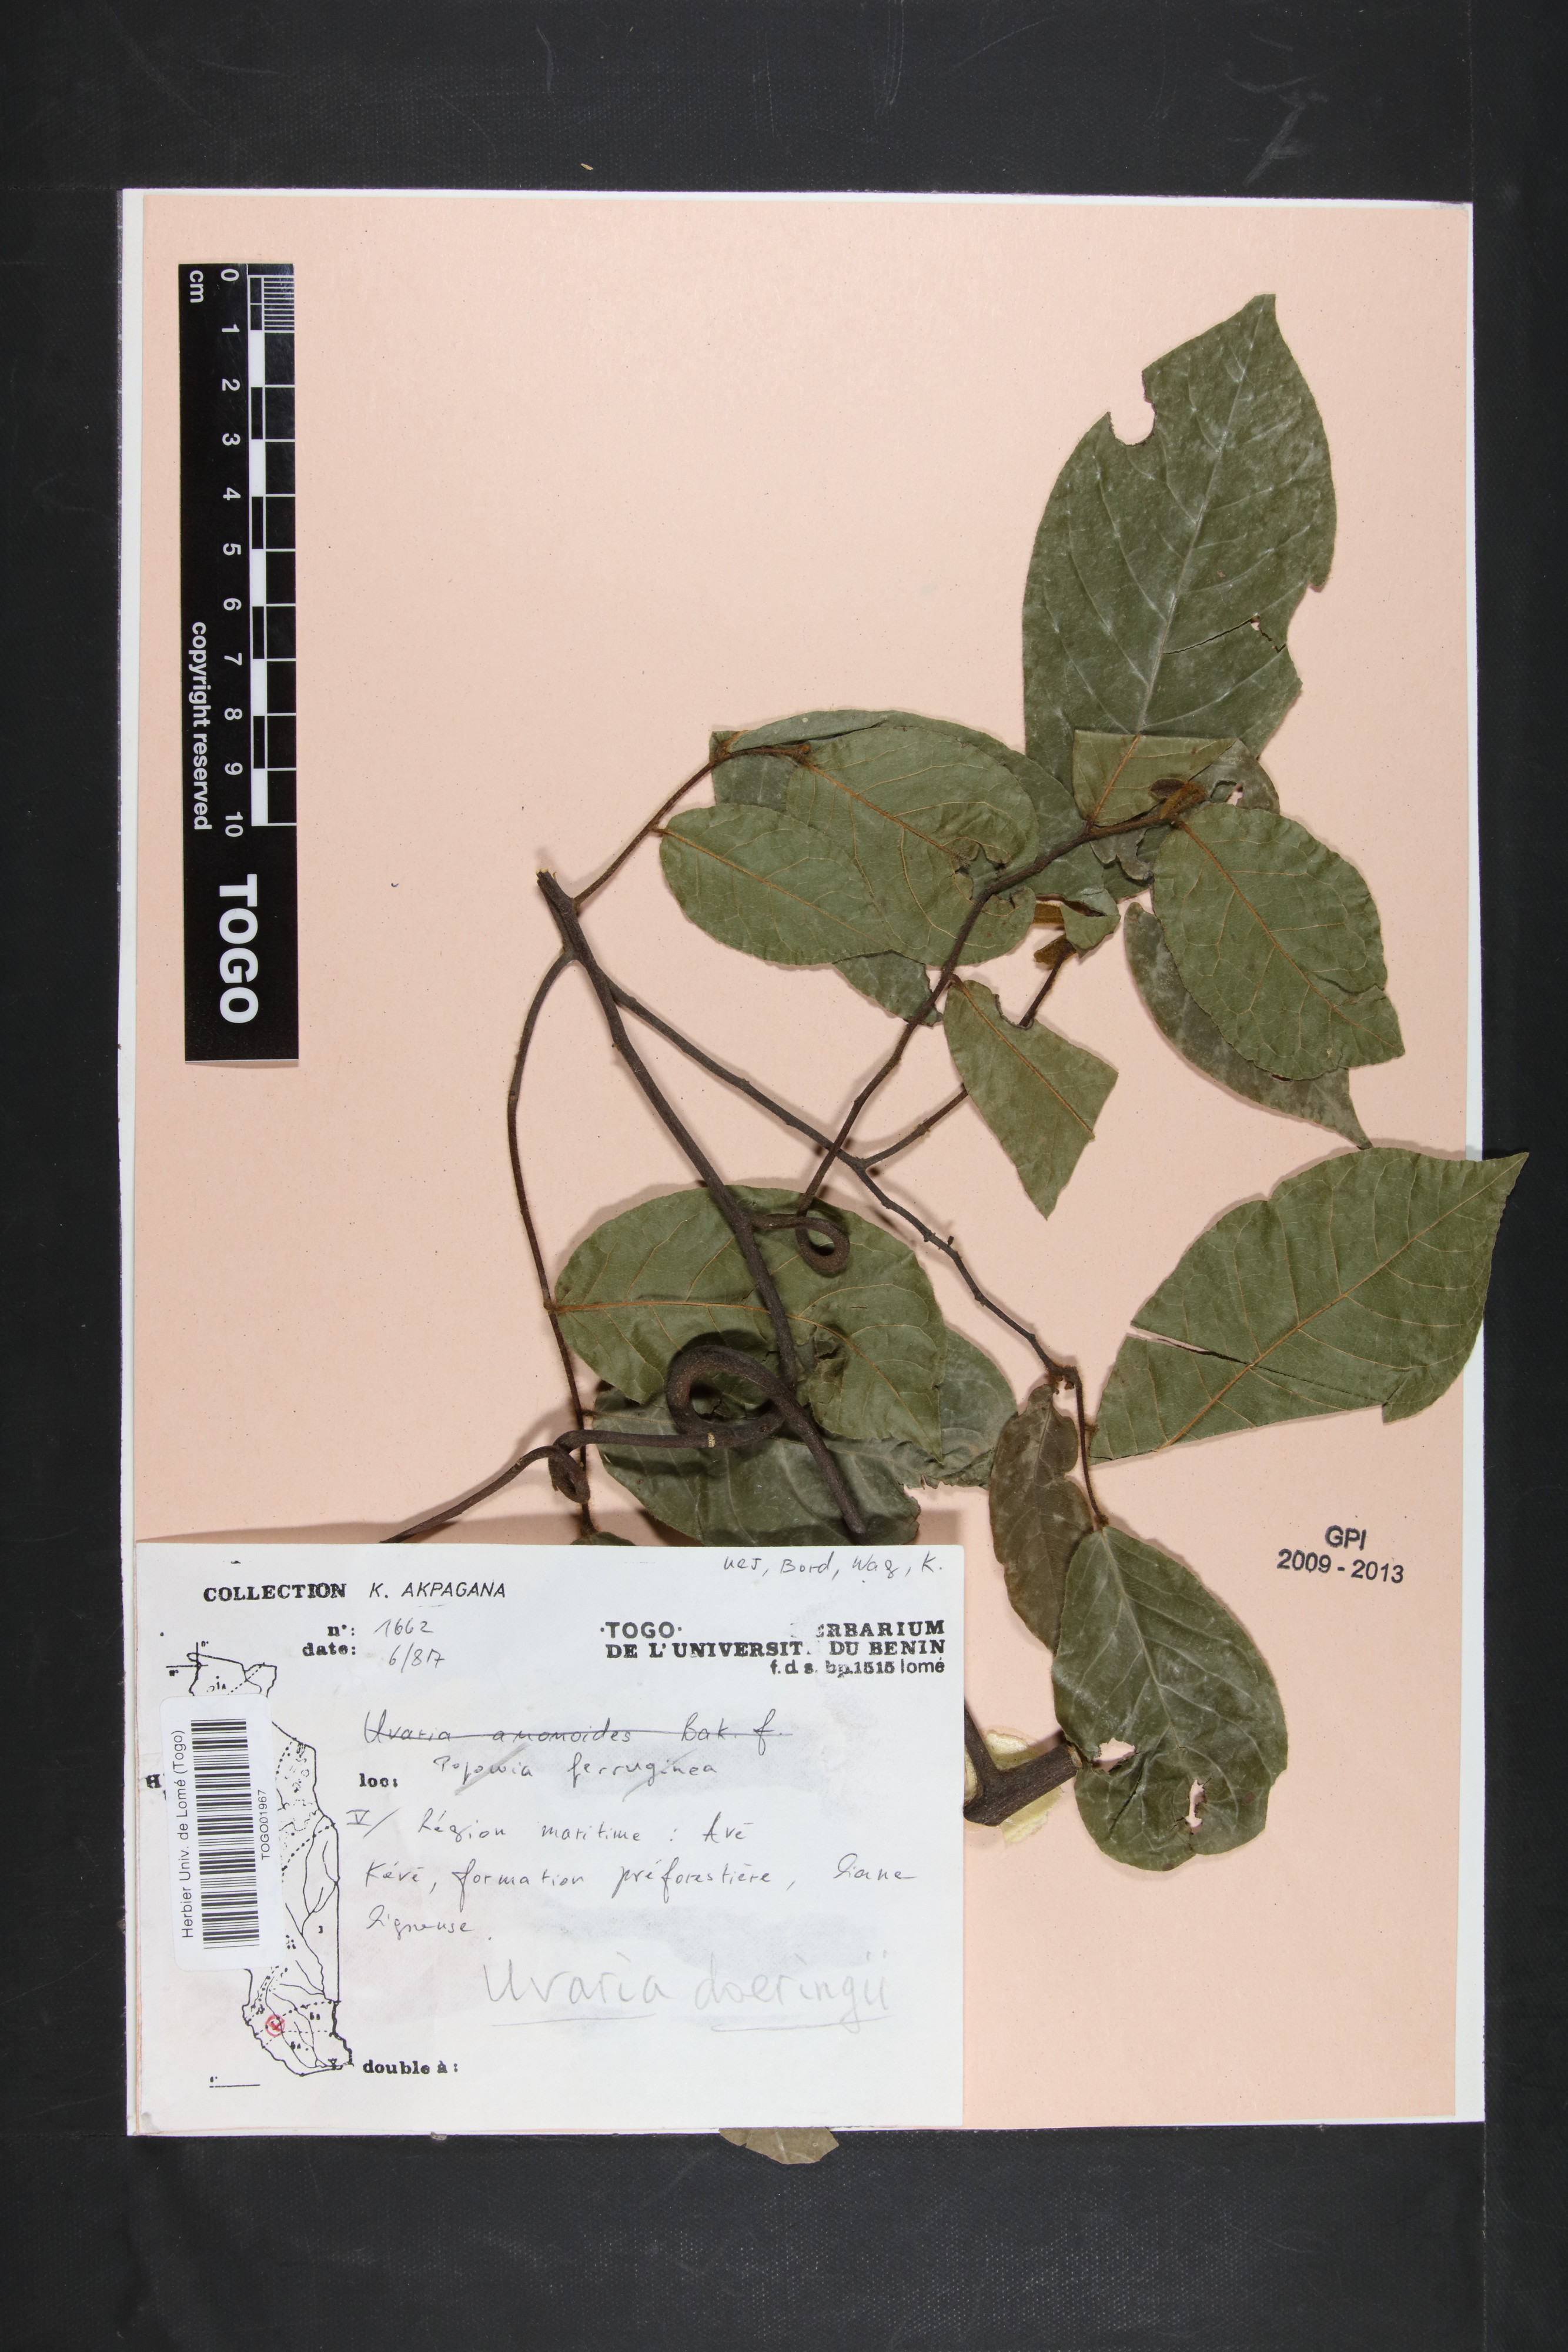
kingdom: Plantae
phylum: Tracheophyta
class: Magnoliopsida
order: Magnoliales
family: Annonaceae
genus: Uvaria
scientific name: Uvaria doeringii
